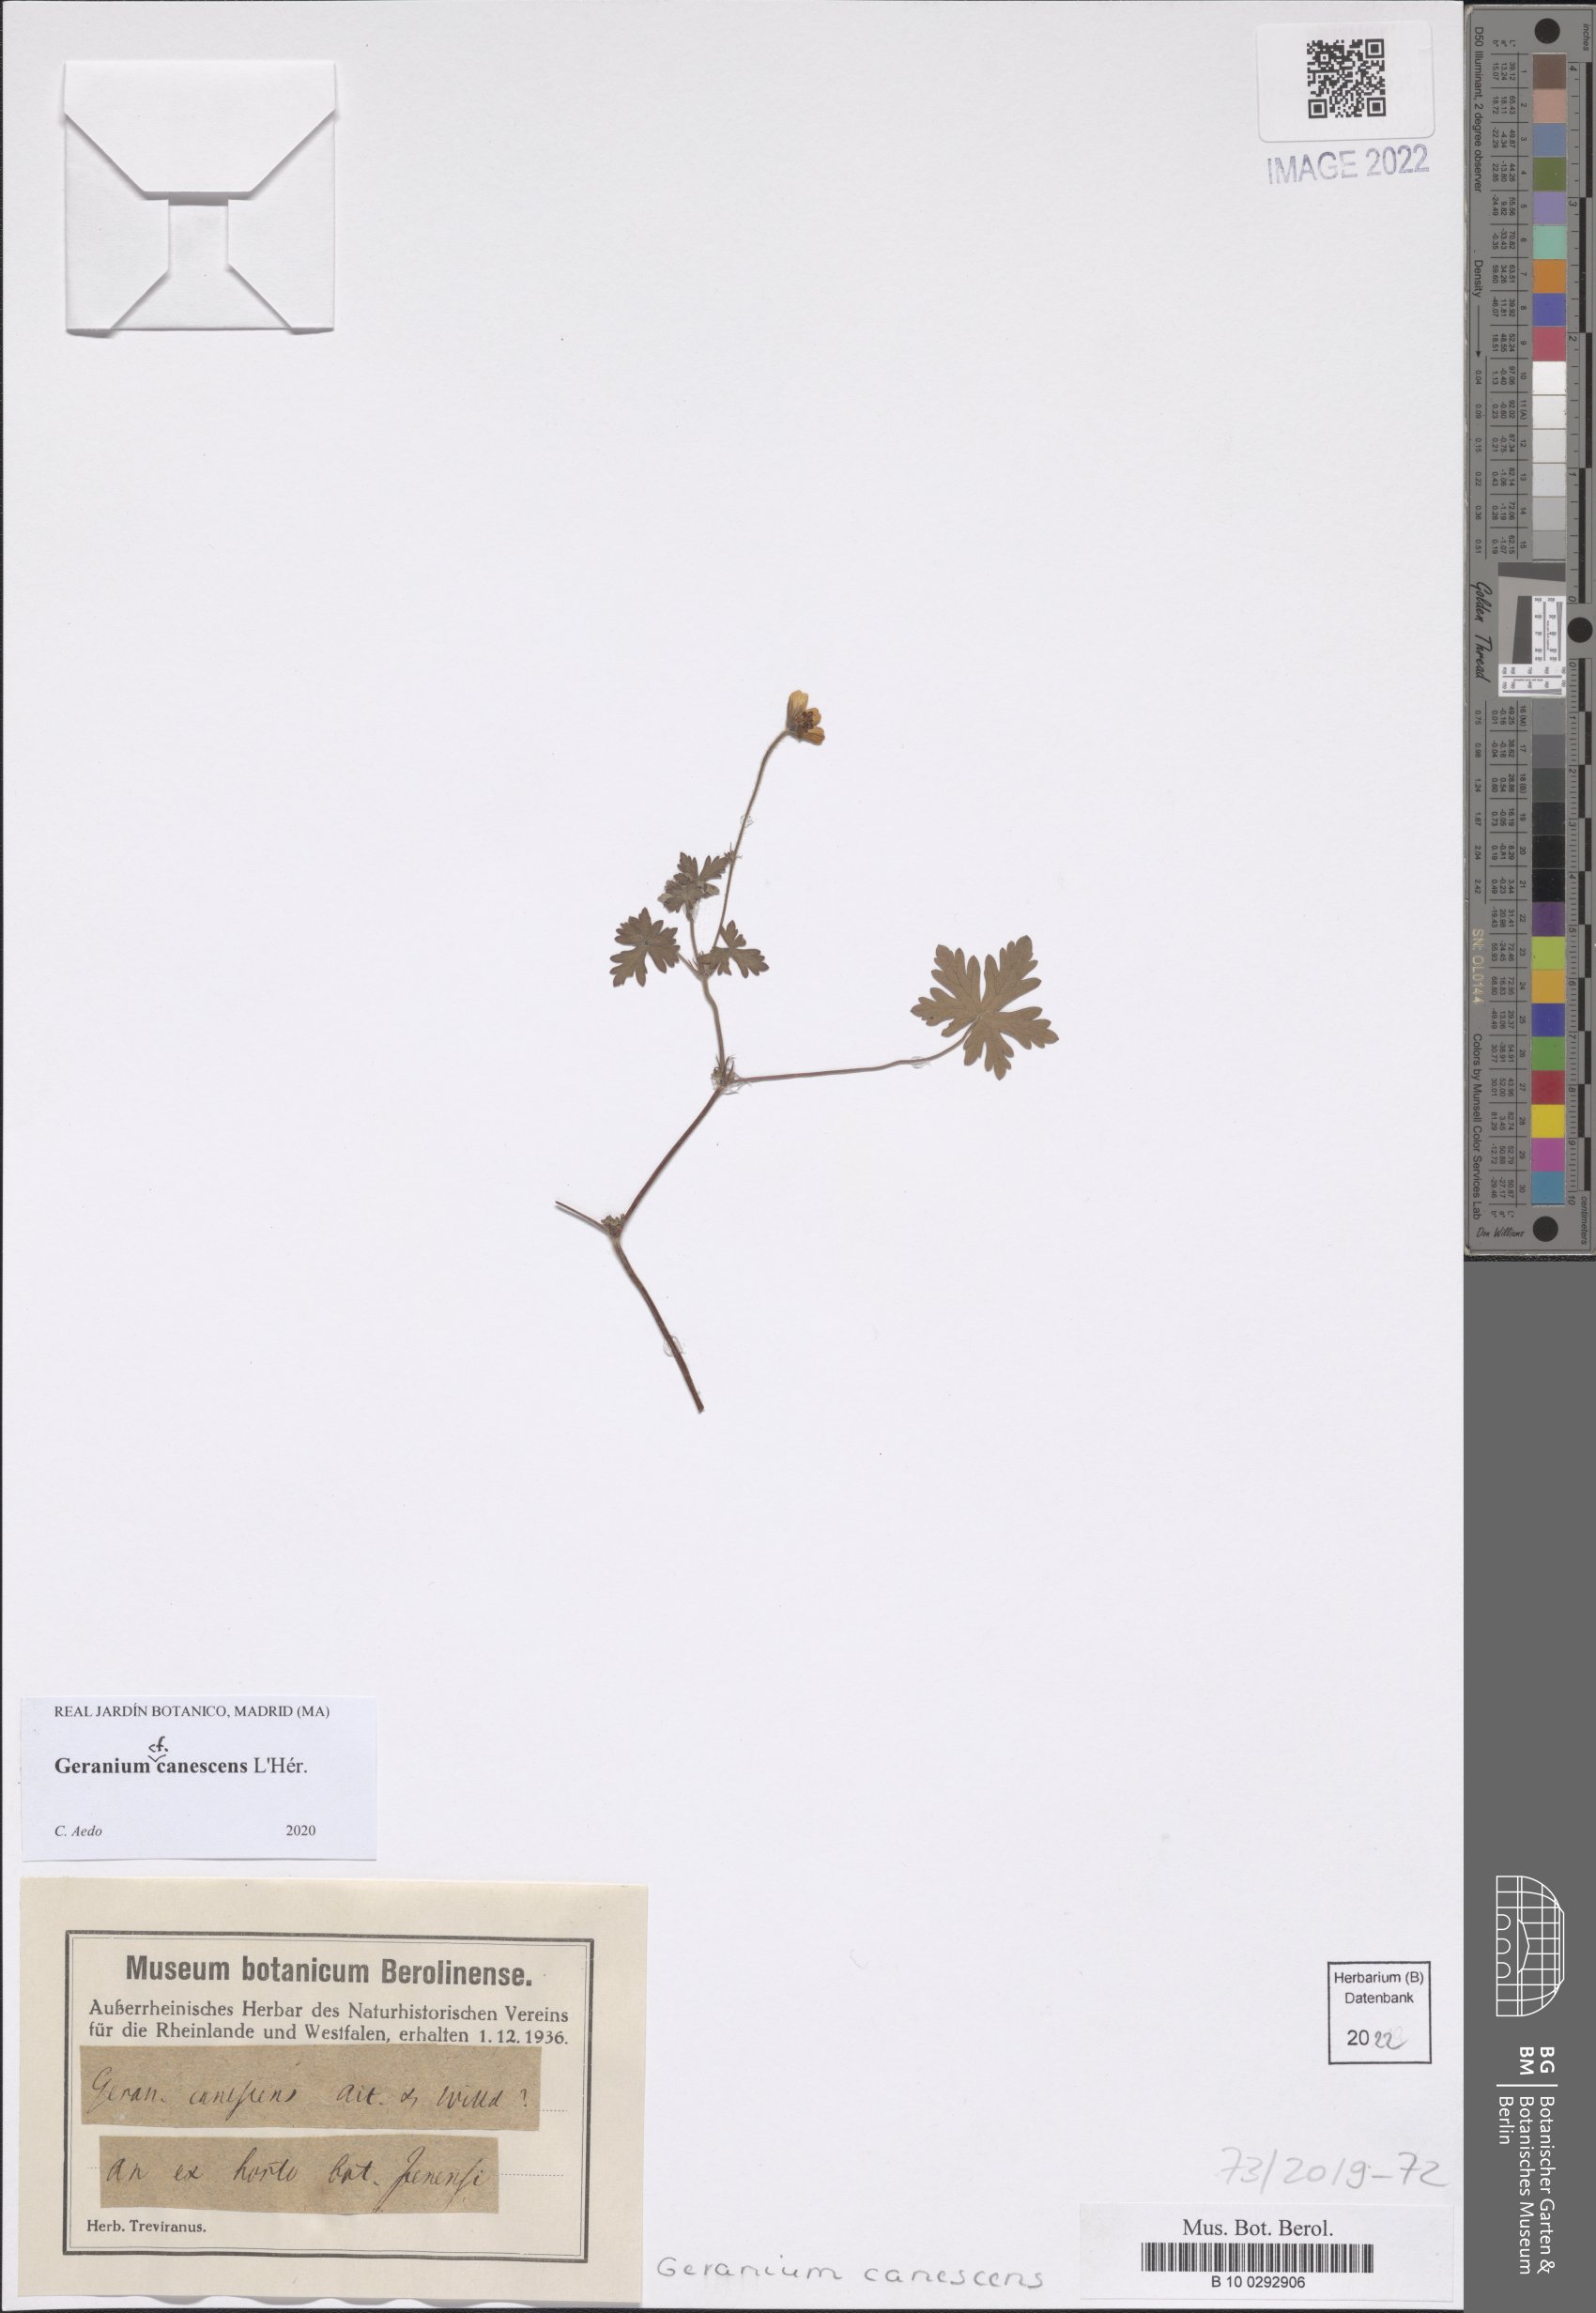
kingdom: Plantae
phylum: Tracheophyta
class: Magnoliopsida
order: Geraniales
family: Geraniaceae
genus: Geranium
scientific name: Geranium canescens
